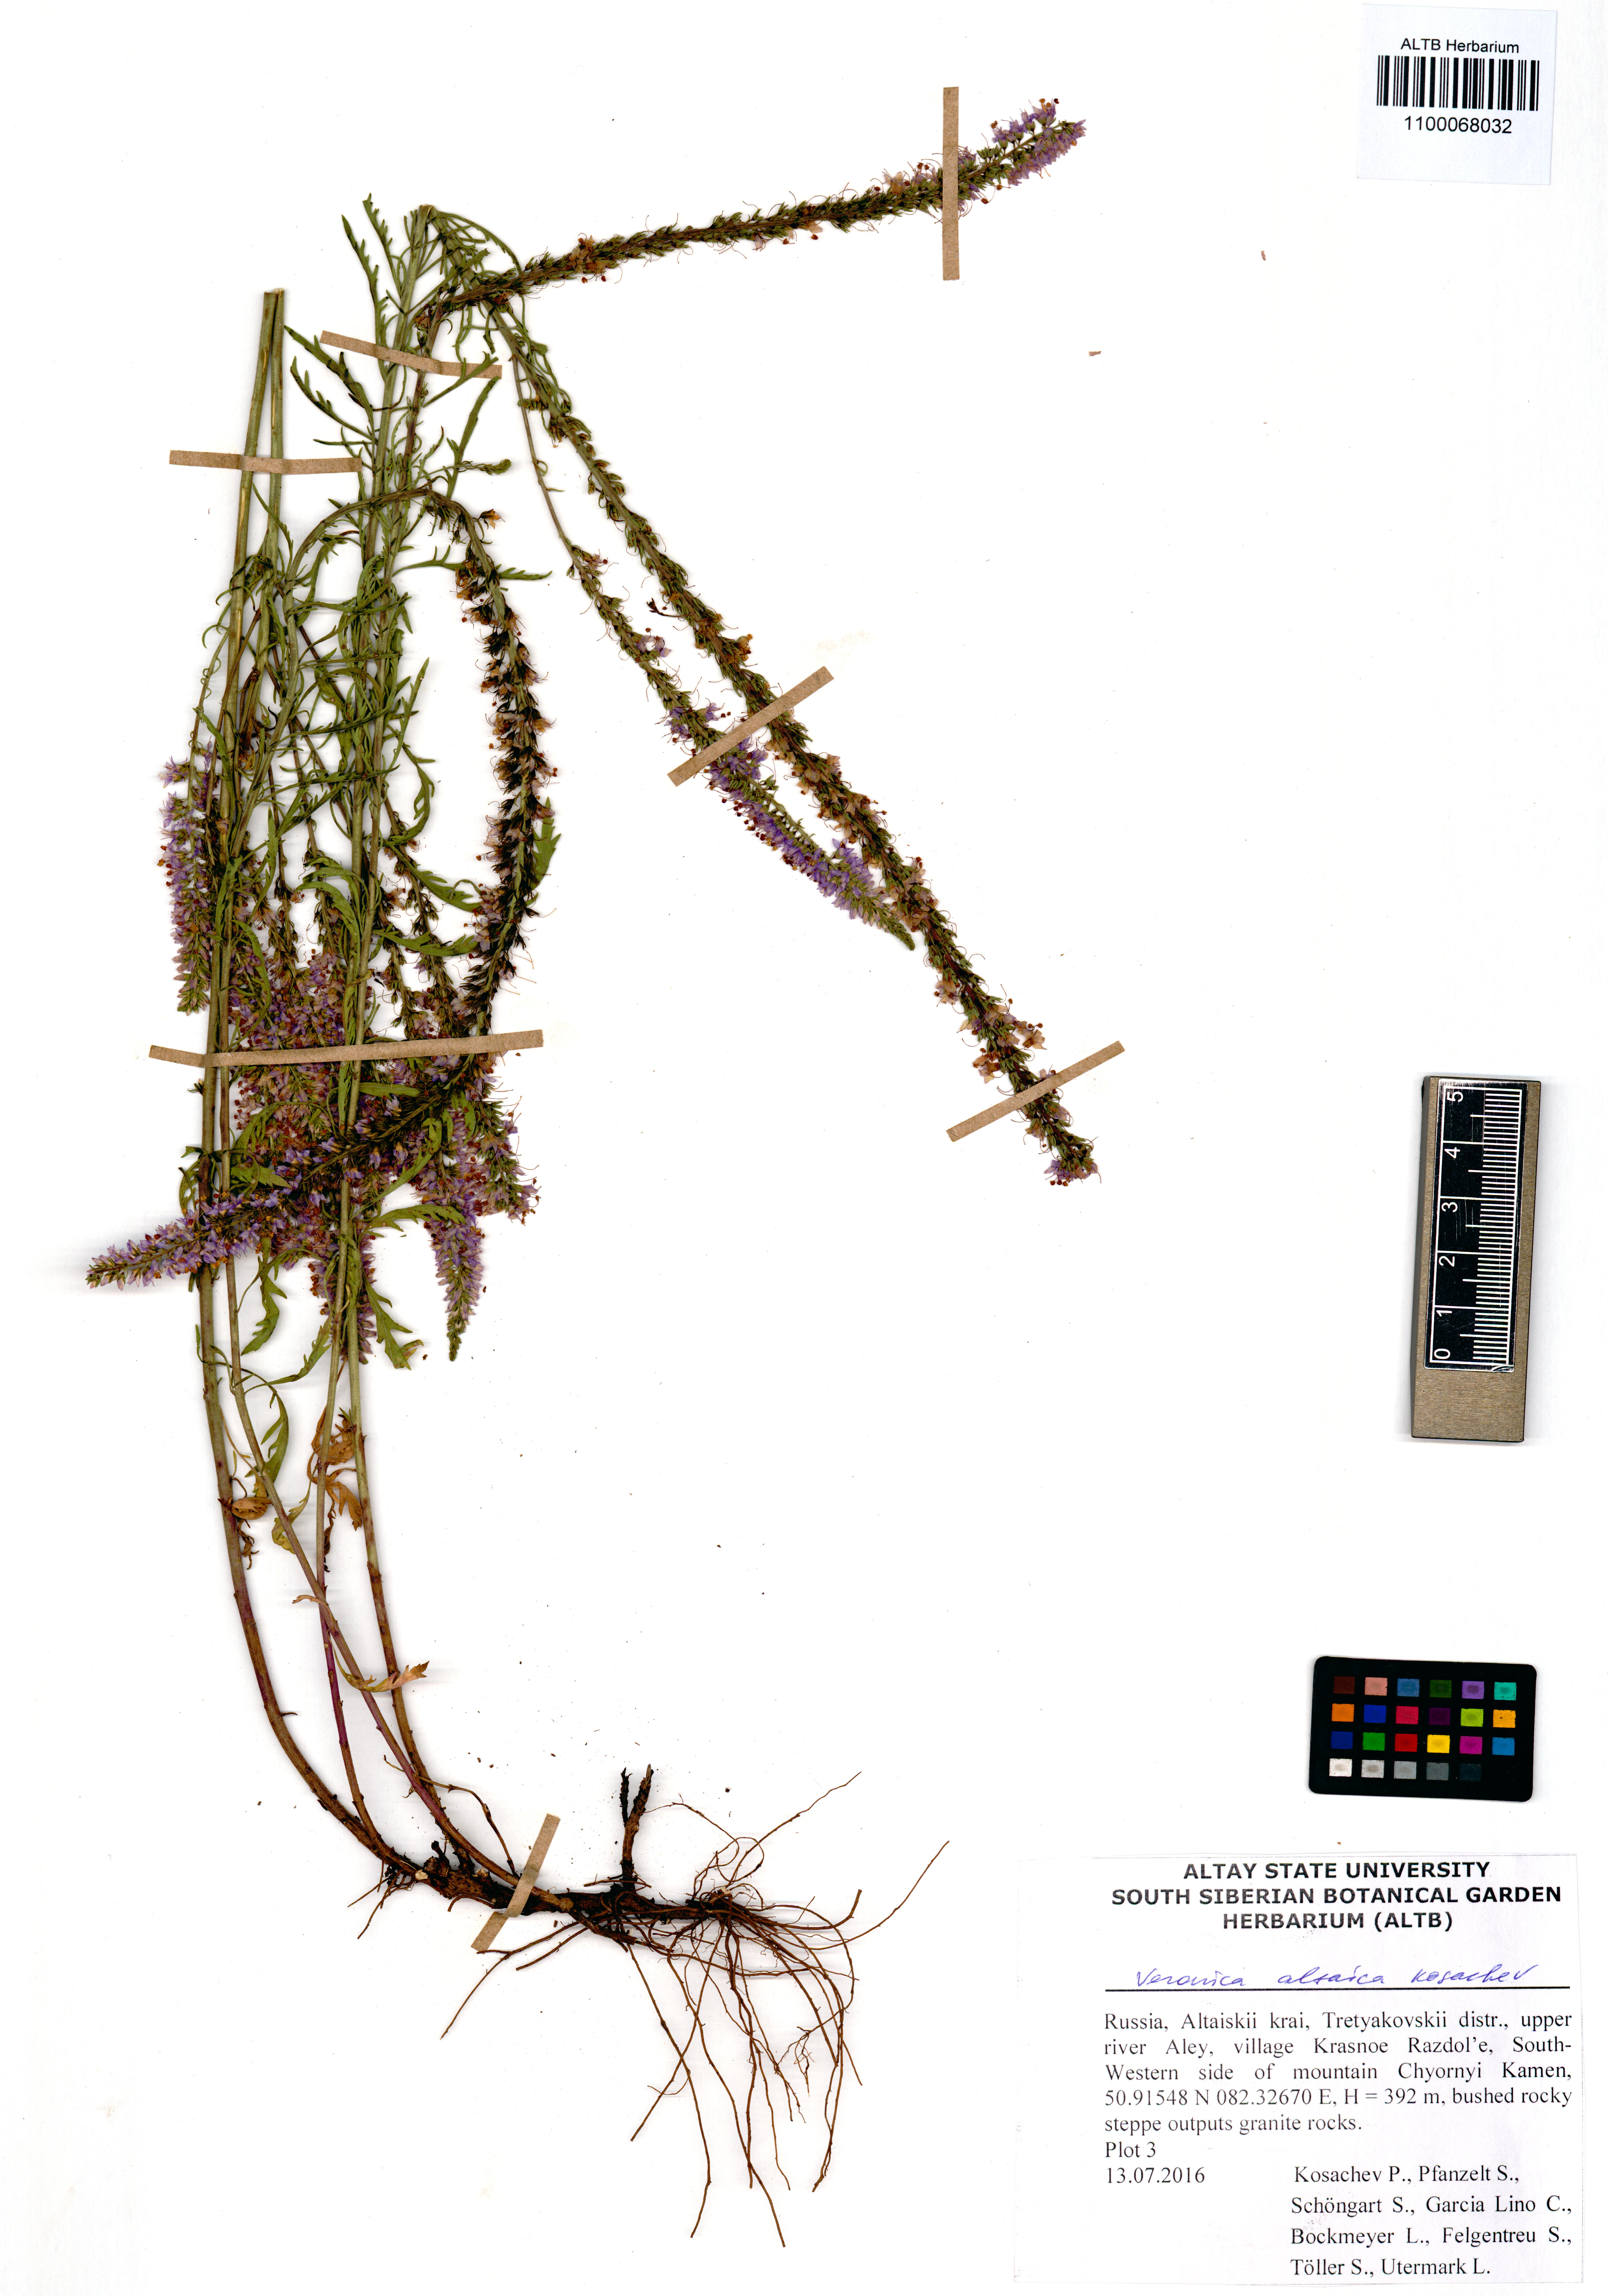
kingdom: Plantae
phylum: Tracheophyta
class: Magnoliopsida
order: Lamiales
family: Plantaginaceae
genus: Veronica
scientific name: Veronica altaica
